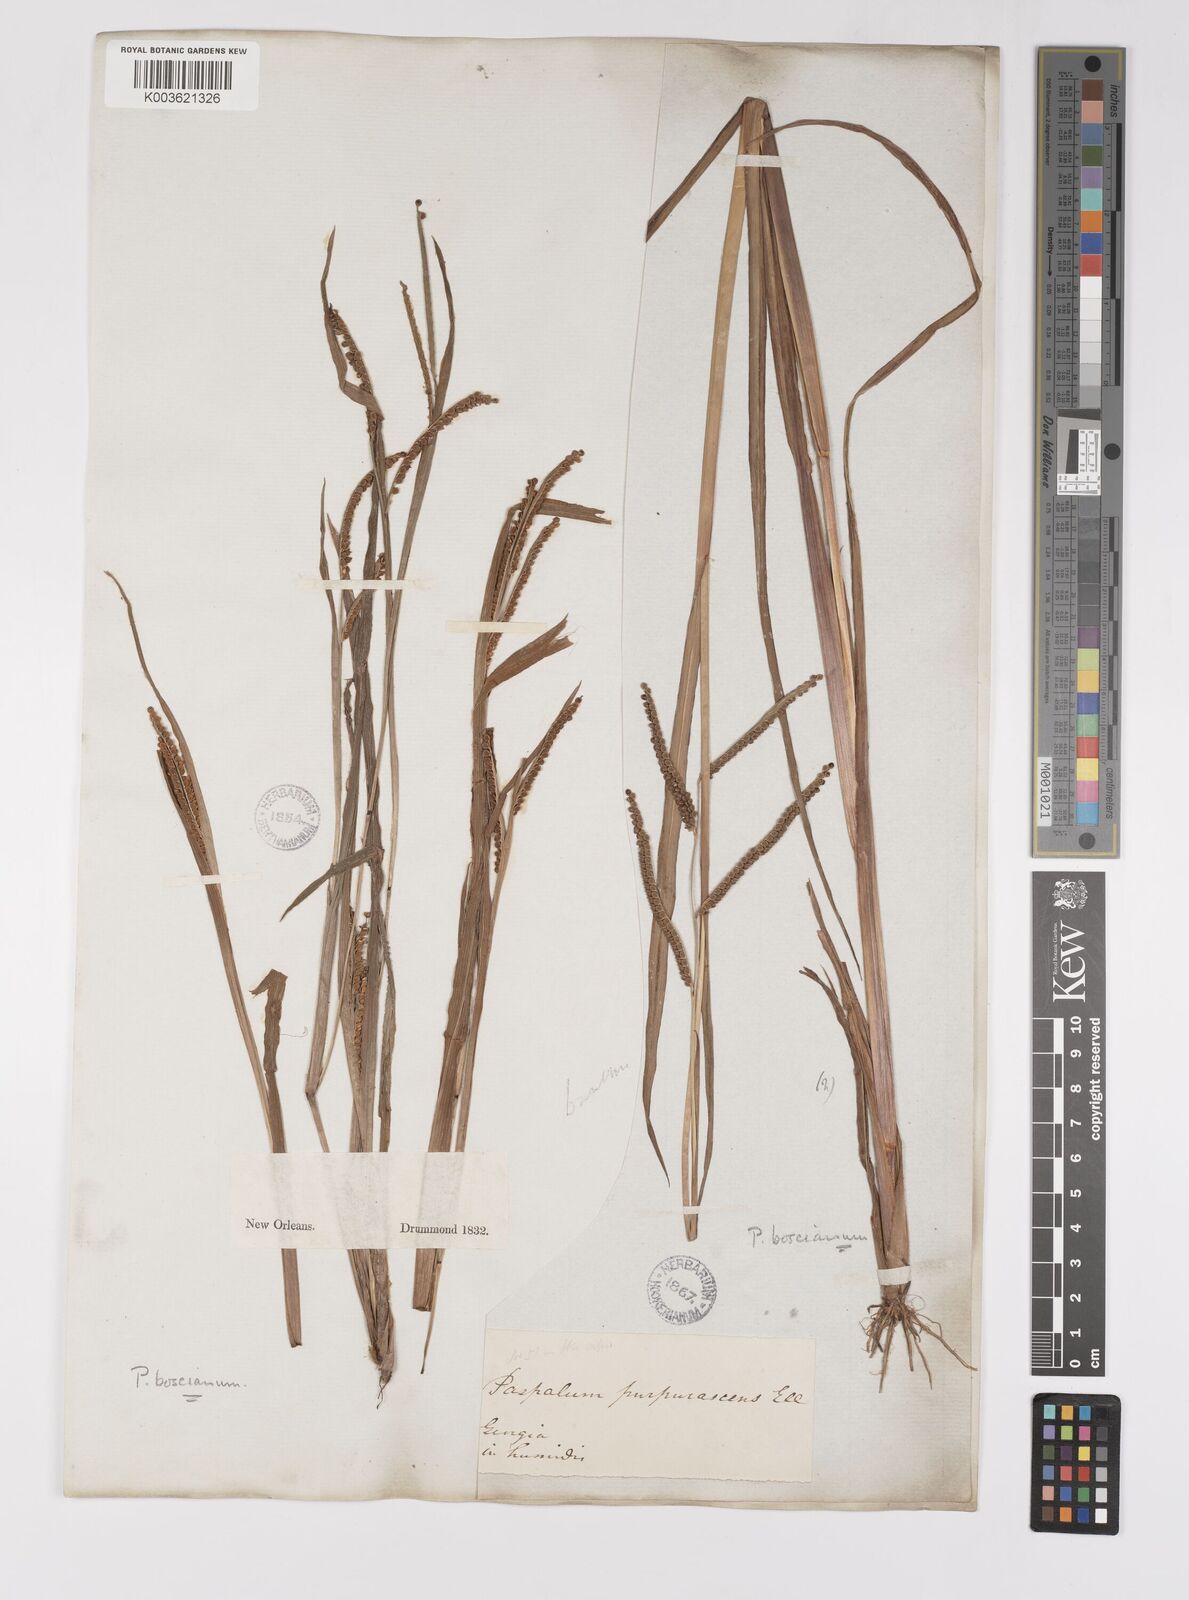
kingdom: Plantae
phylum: Tracheophyta
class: Liliopsida
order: Poales
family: Poaceae
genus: Paspalum
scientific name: Paspalum scrobiculatum
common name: Kodo millet
